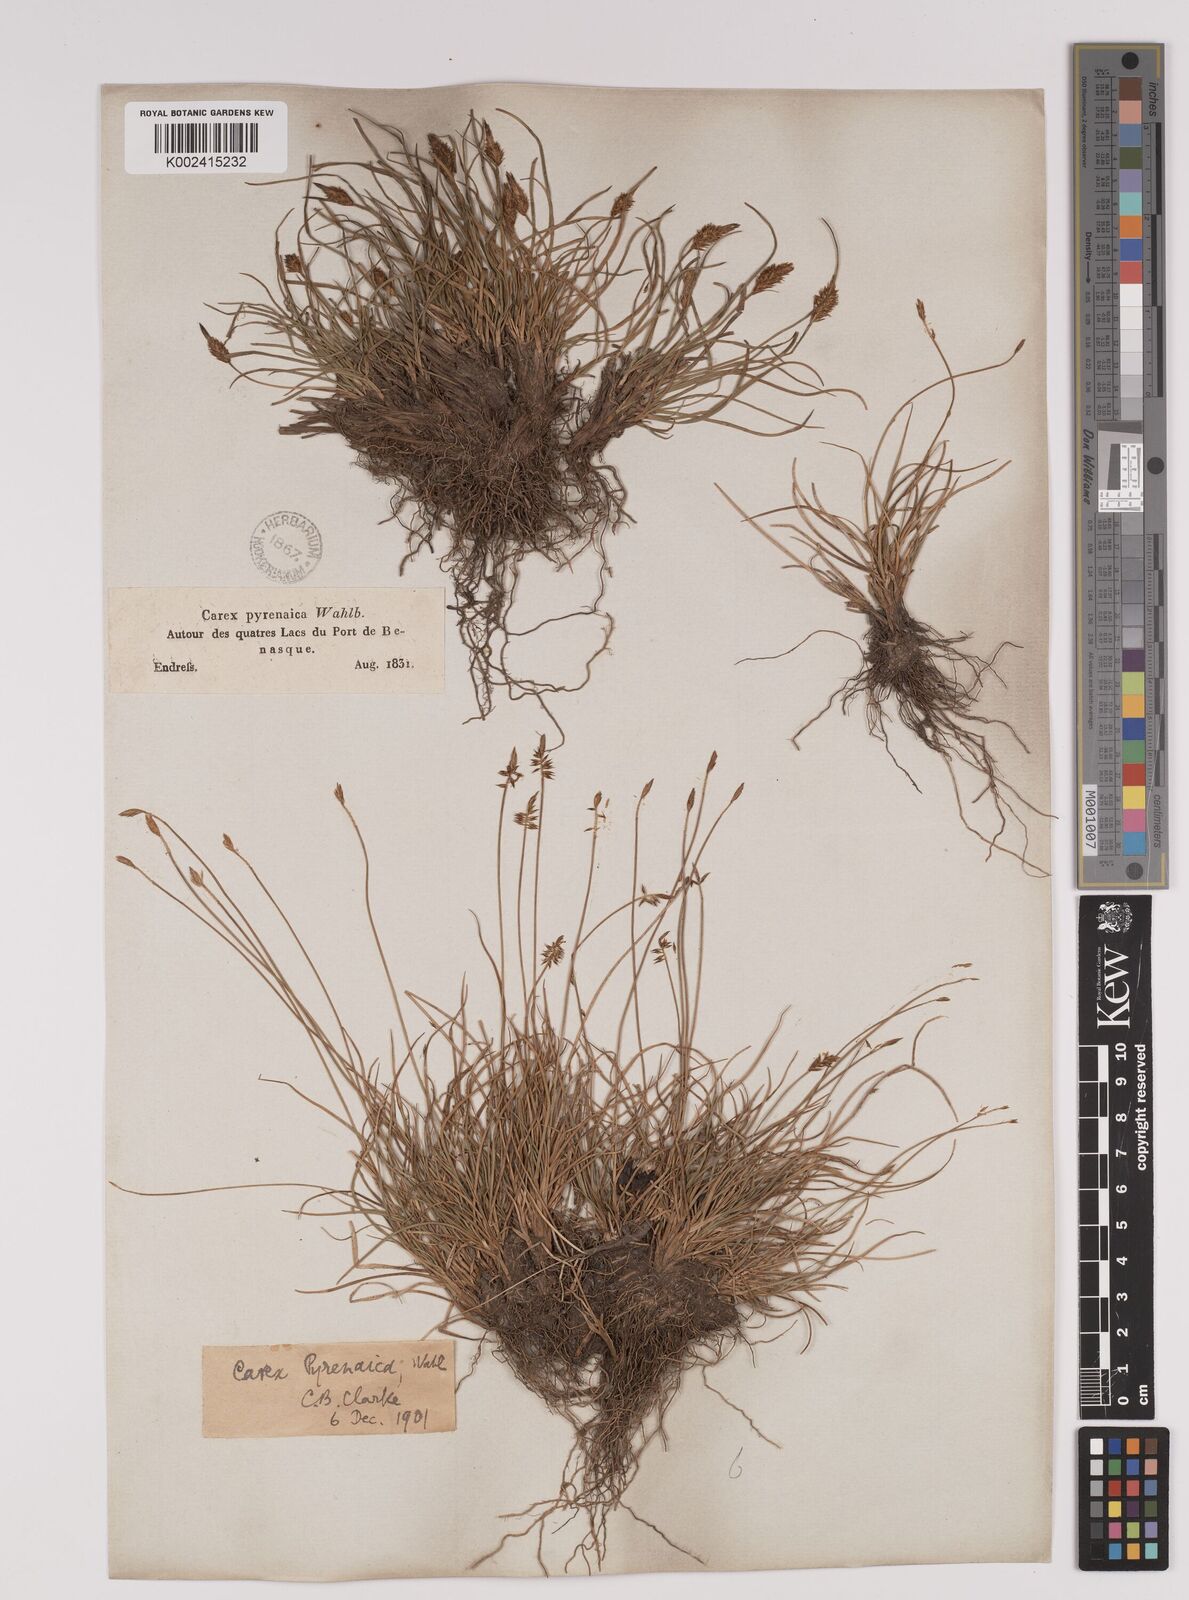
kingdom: Plantae
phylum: Tracheophyta
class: Liliopsida
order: Poales
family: Cyperaceae
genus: Carex
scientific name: Carex pyrenaica
